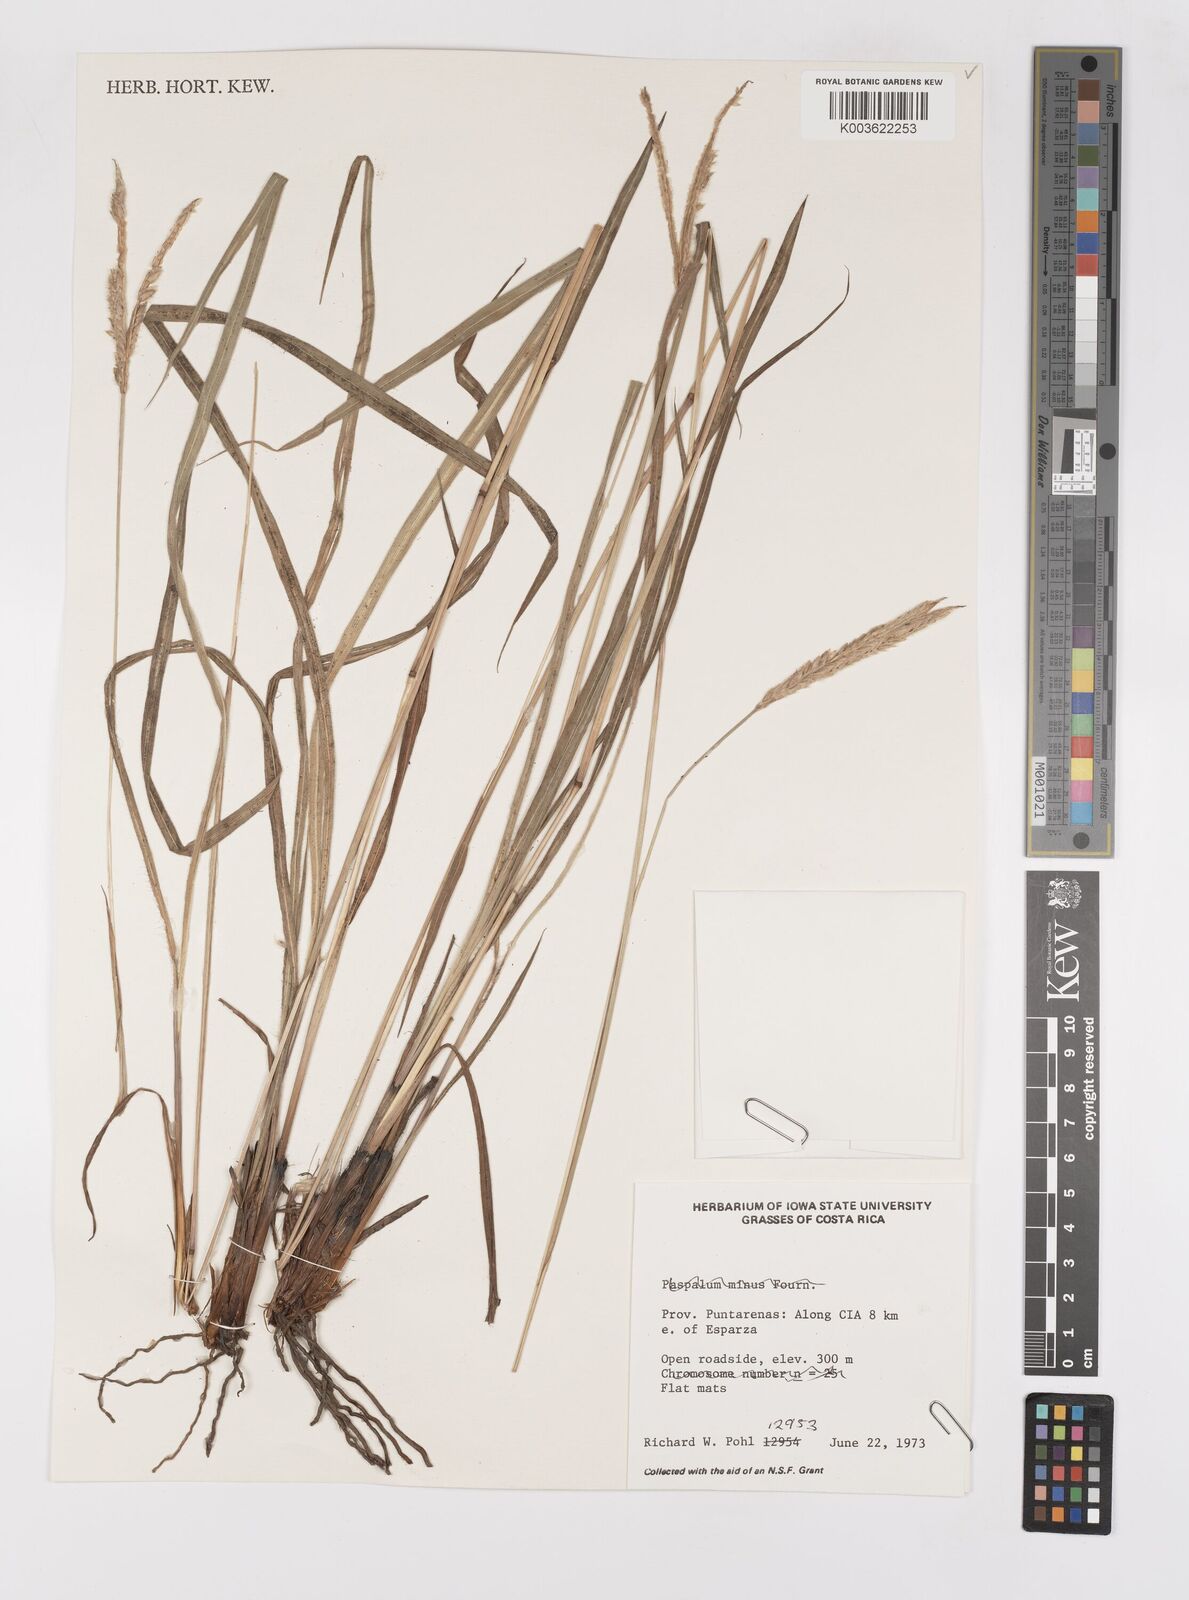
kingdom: Plantae
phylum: Tracheophyta
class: Liliopsida
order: Poales
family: Poaceae
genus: Paspalum
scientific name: Paspalum
